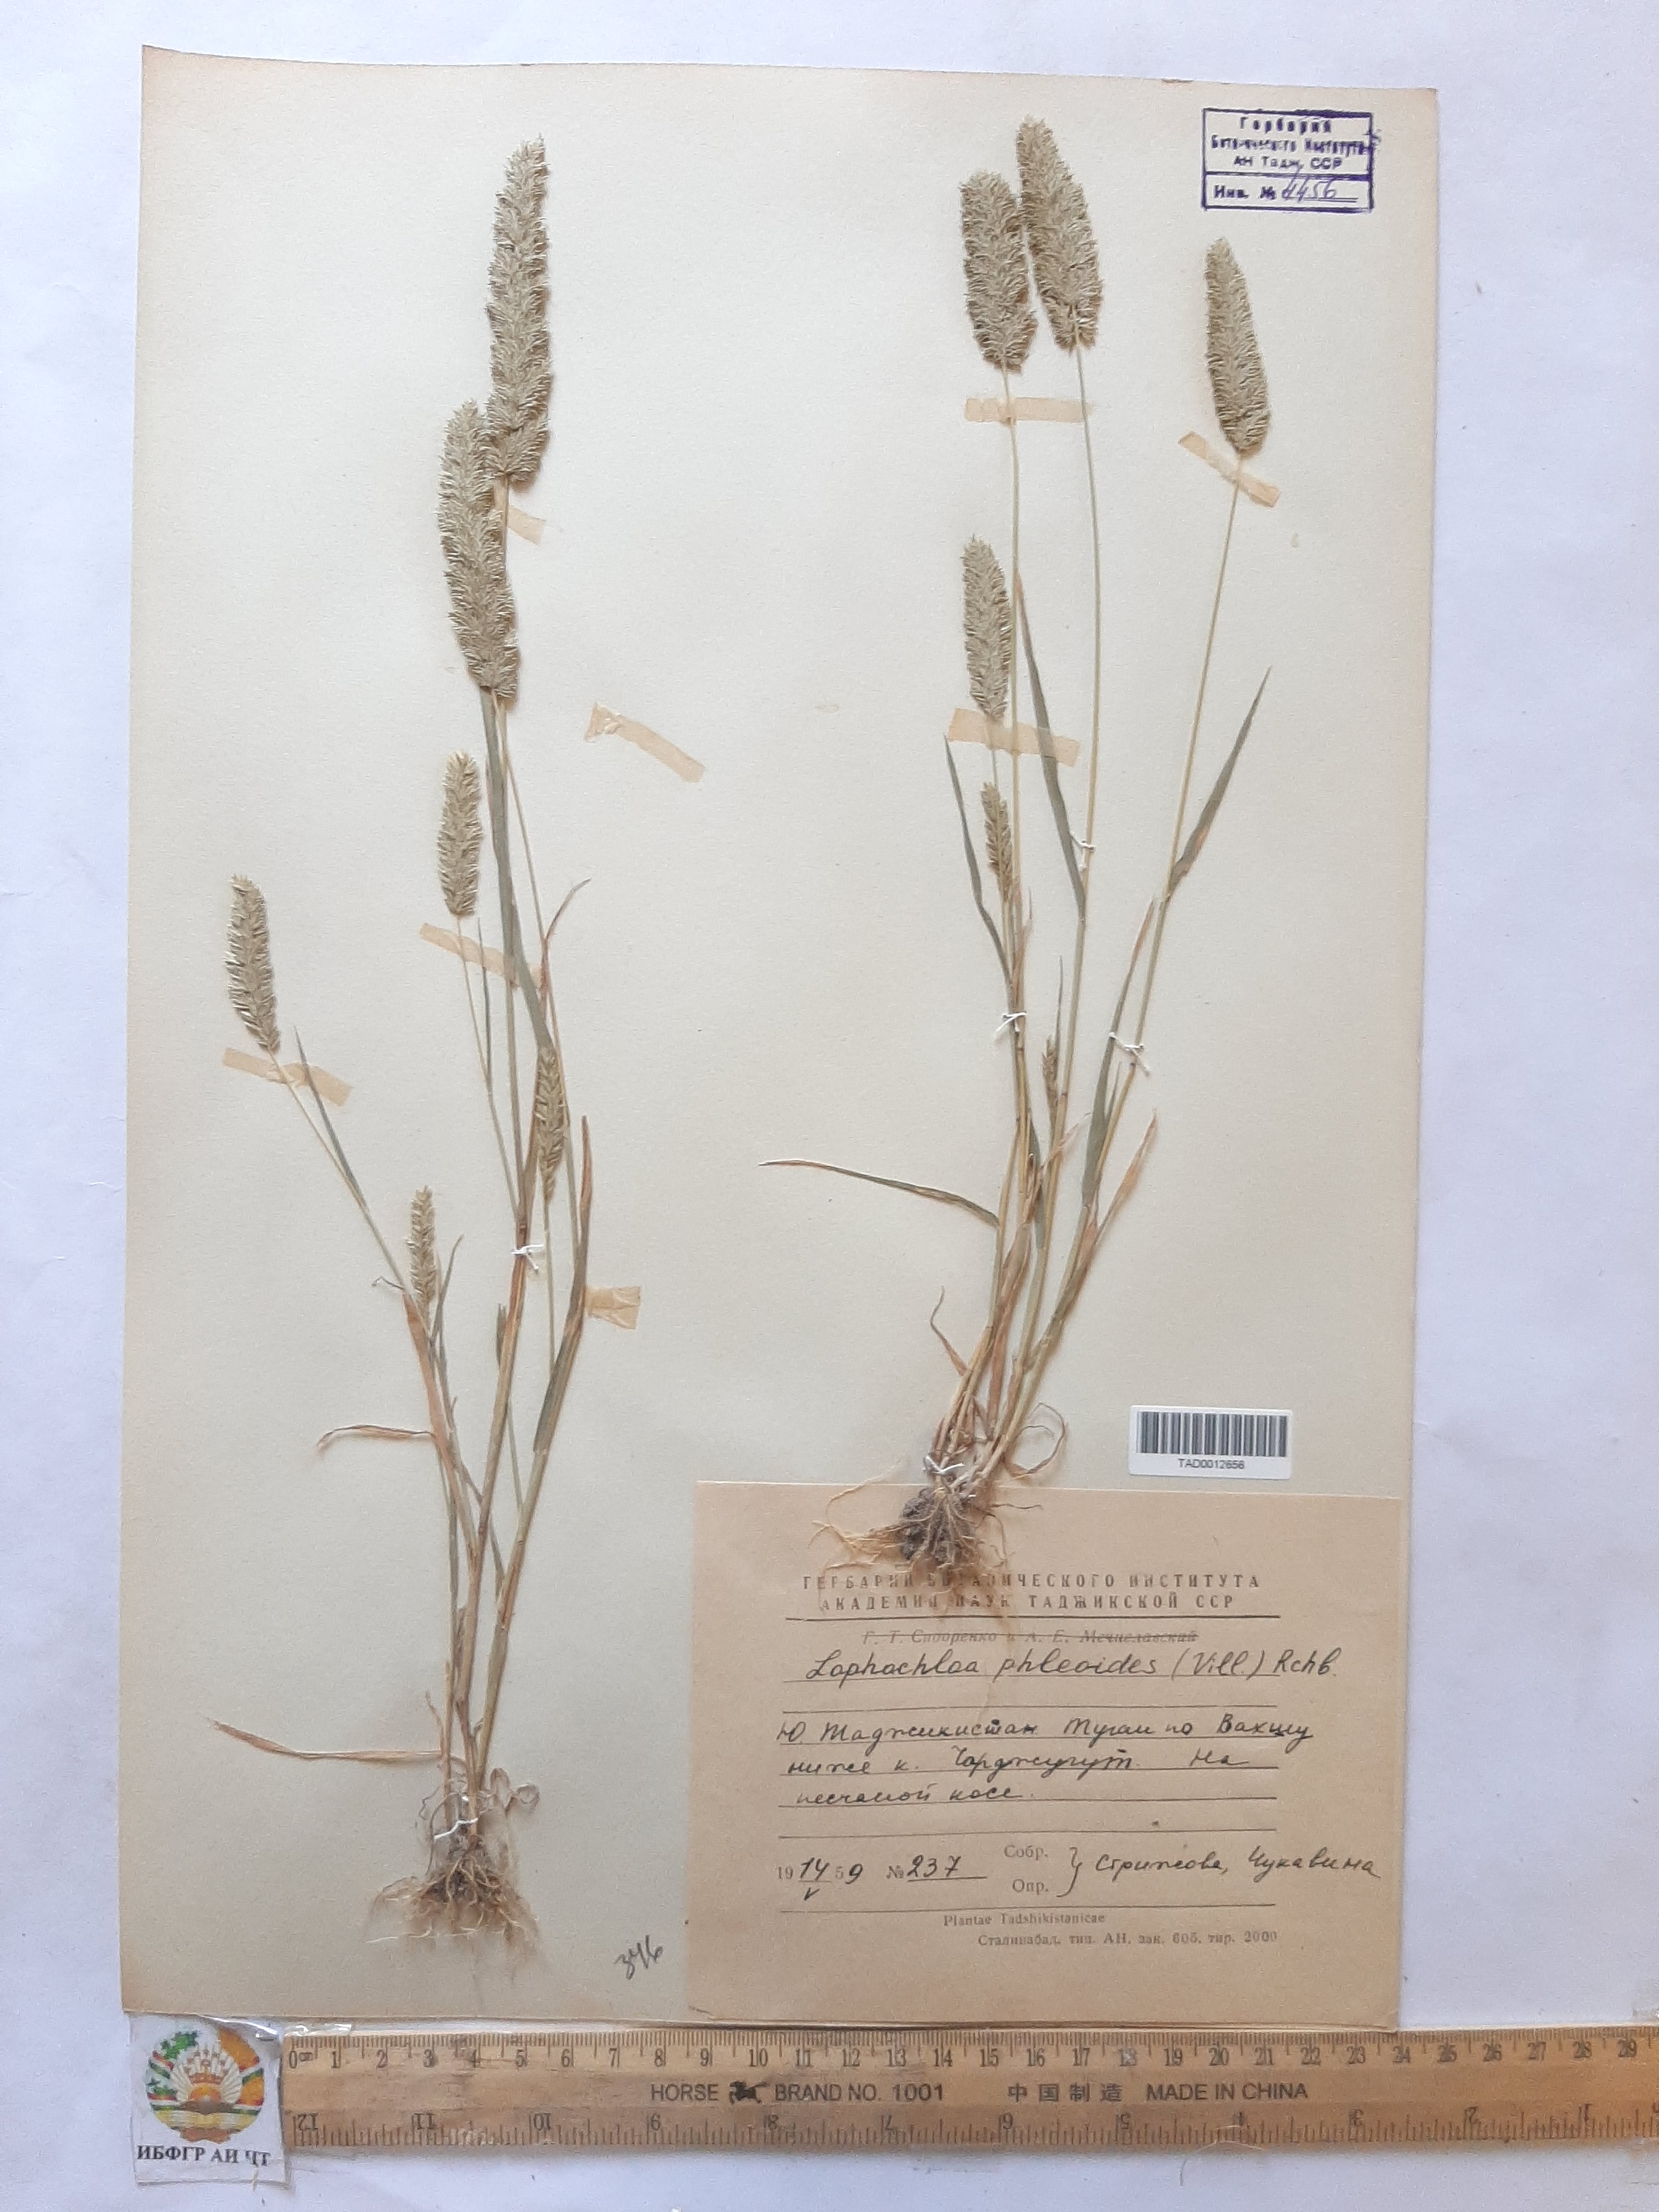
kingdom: Plantae
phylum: Tracheophyta
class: Liliopsida
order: Poales
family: Poaceae
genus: Rostraria
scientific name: Rostraria cristata
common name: Mediterranean hair-grass
